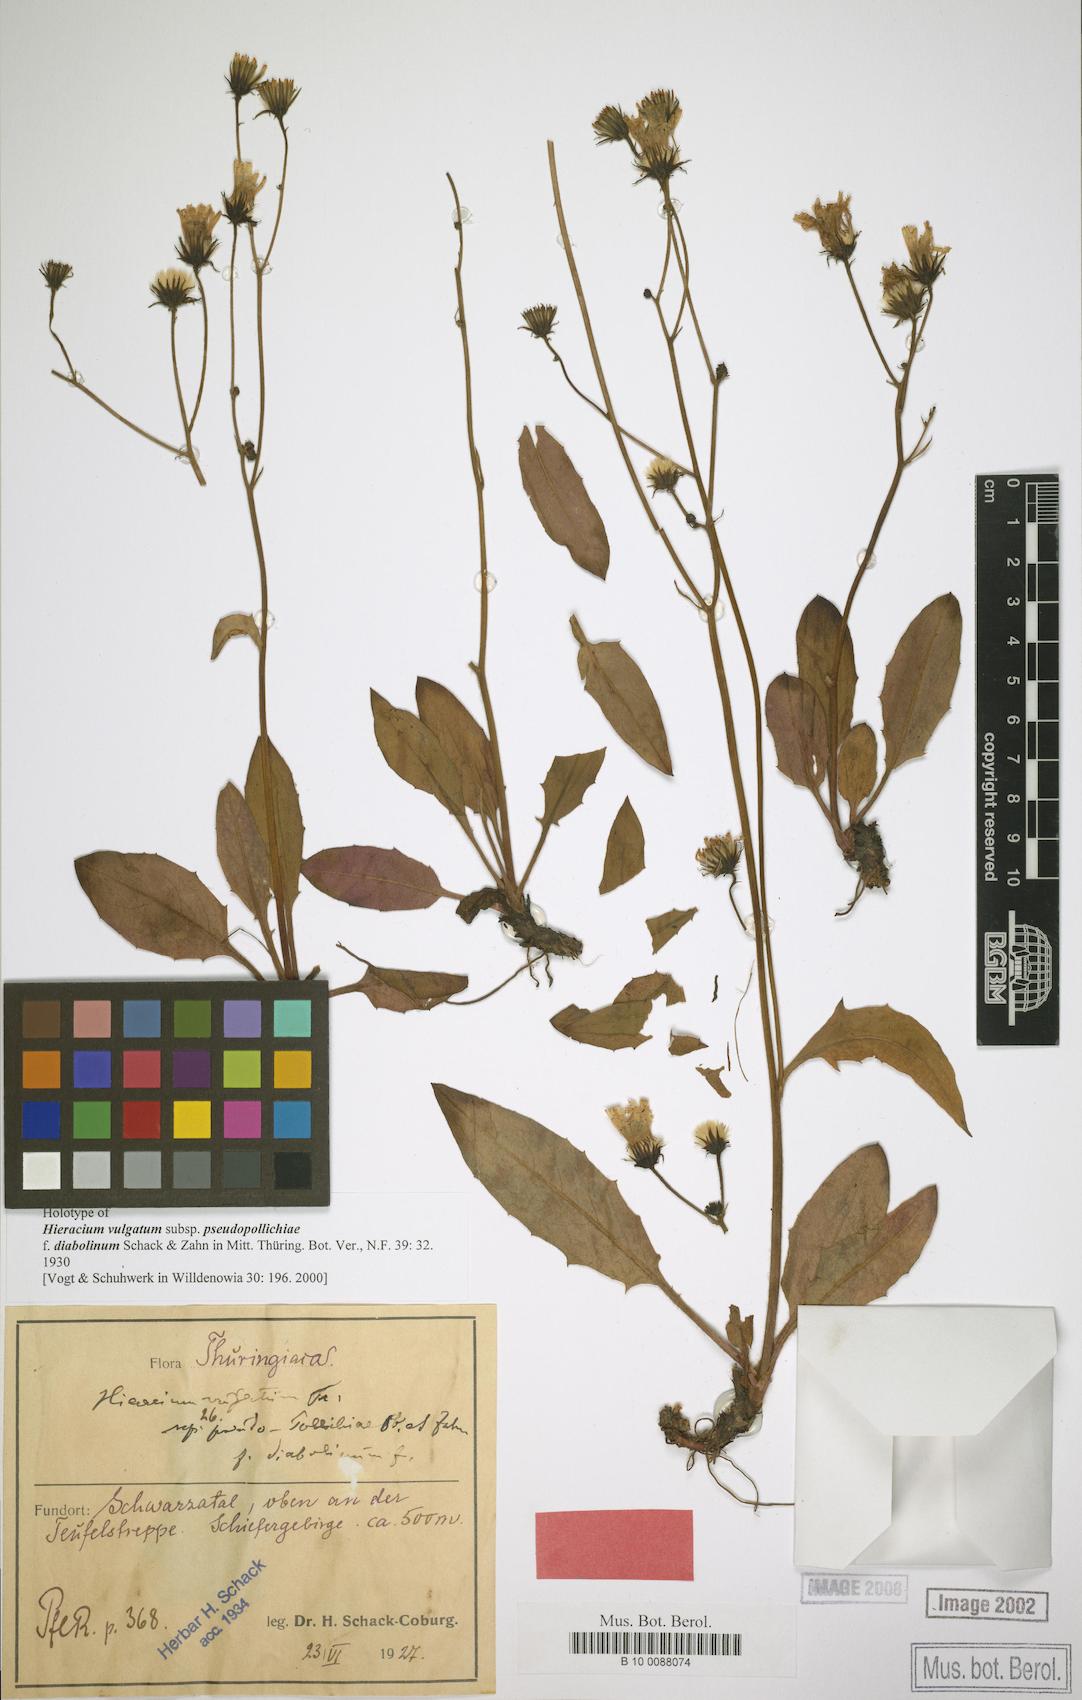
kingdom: Plantae
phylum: Tracheophyta
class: Magnoliopsida
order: Asterales
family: Asteraceae
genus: Hieracium
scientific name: Hieracium vulgatum
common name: Common hawkweed
